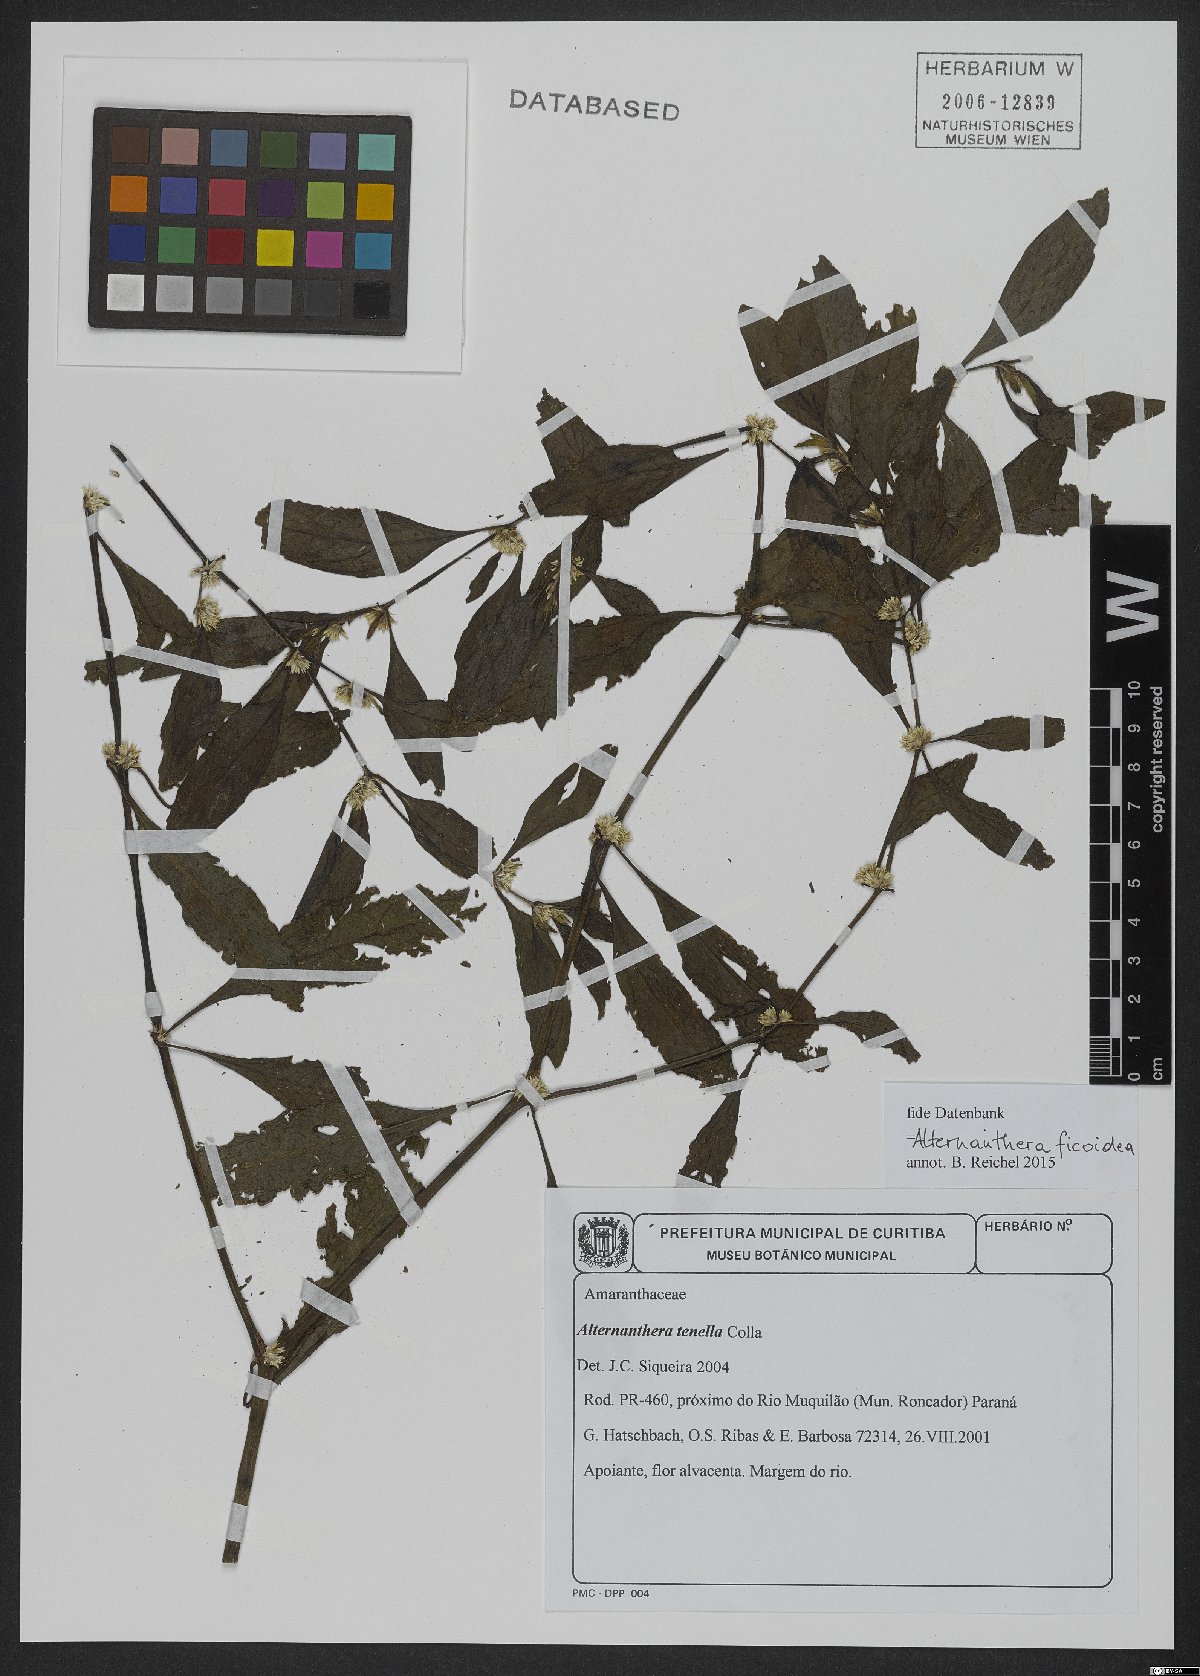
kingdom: Plantae
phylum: Tracheophyta
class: Magnoliopsida
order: Caryophyllales
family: Amaranthaceae
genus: Alternanthera
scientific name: Alternanthera ficoidea
